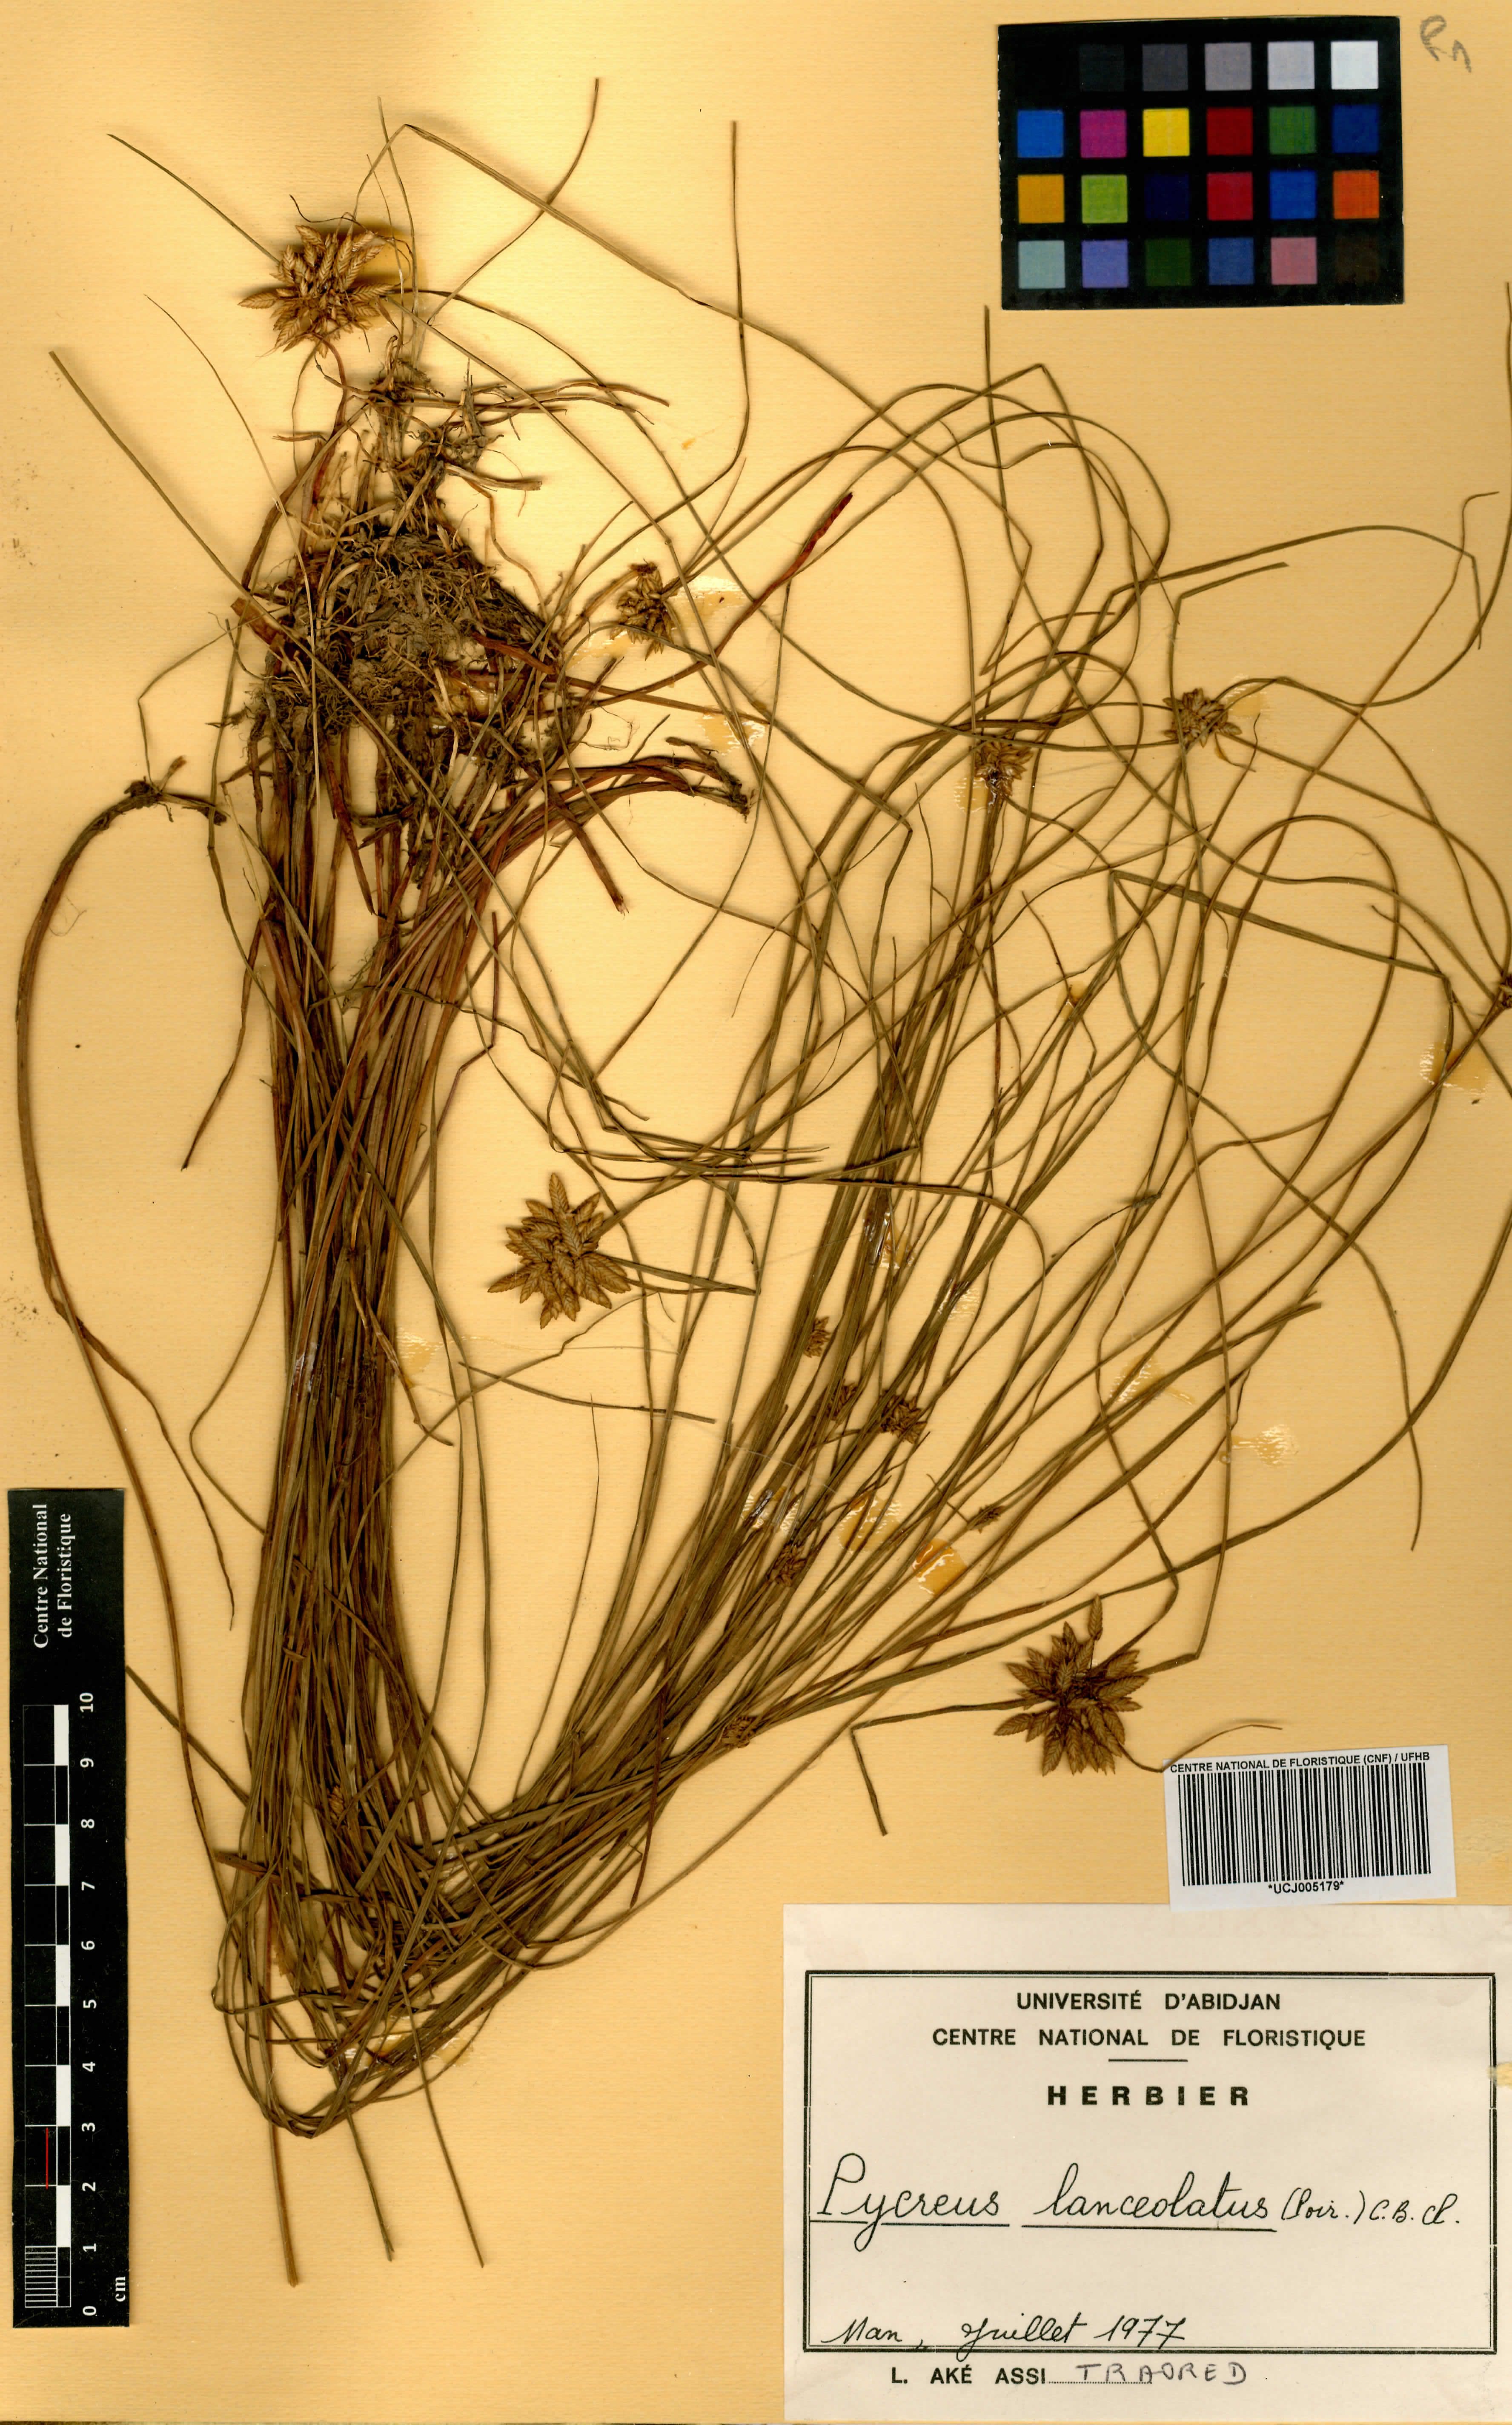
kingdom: Plantae
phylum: Tracheophyta
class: Liliopsida
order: Poales
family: Cyperaceae
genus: Cyperus
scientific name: Cyperus lanceolatus
